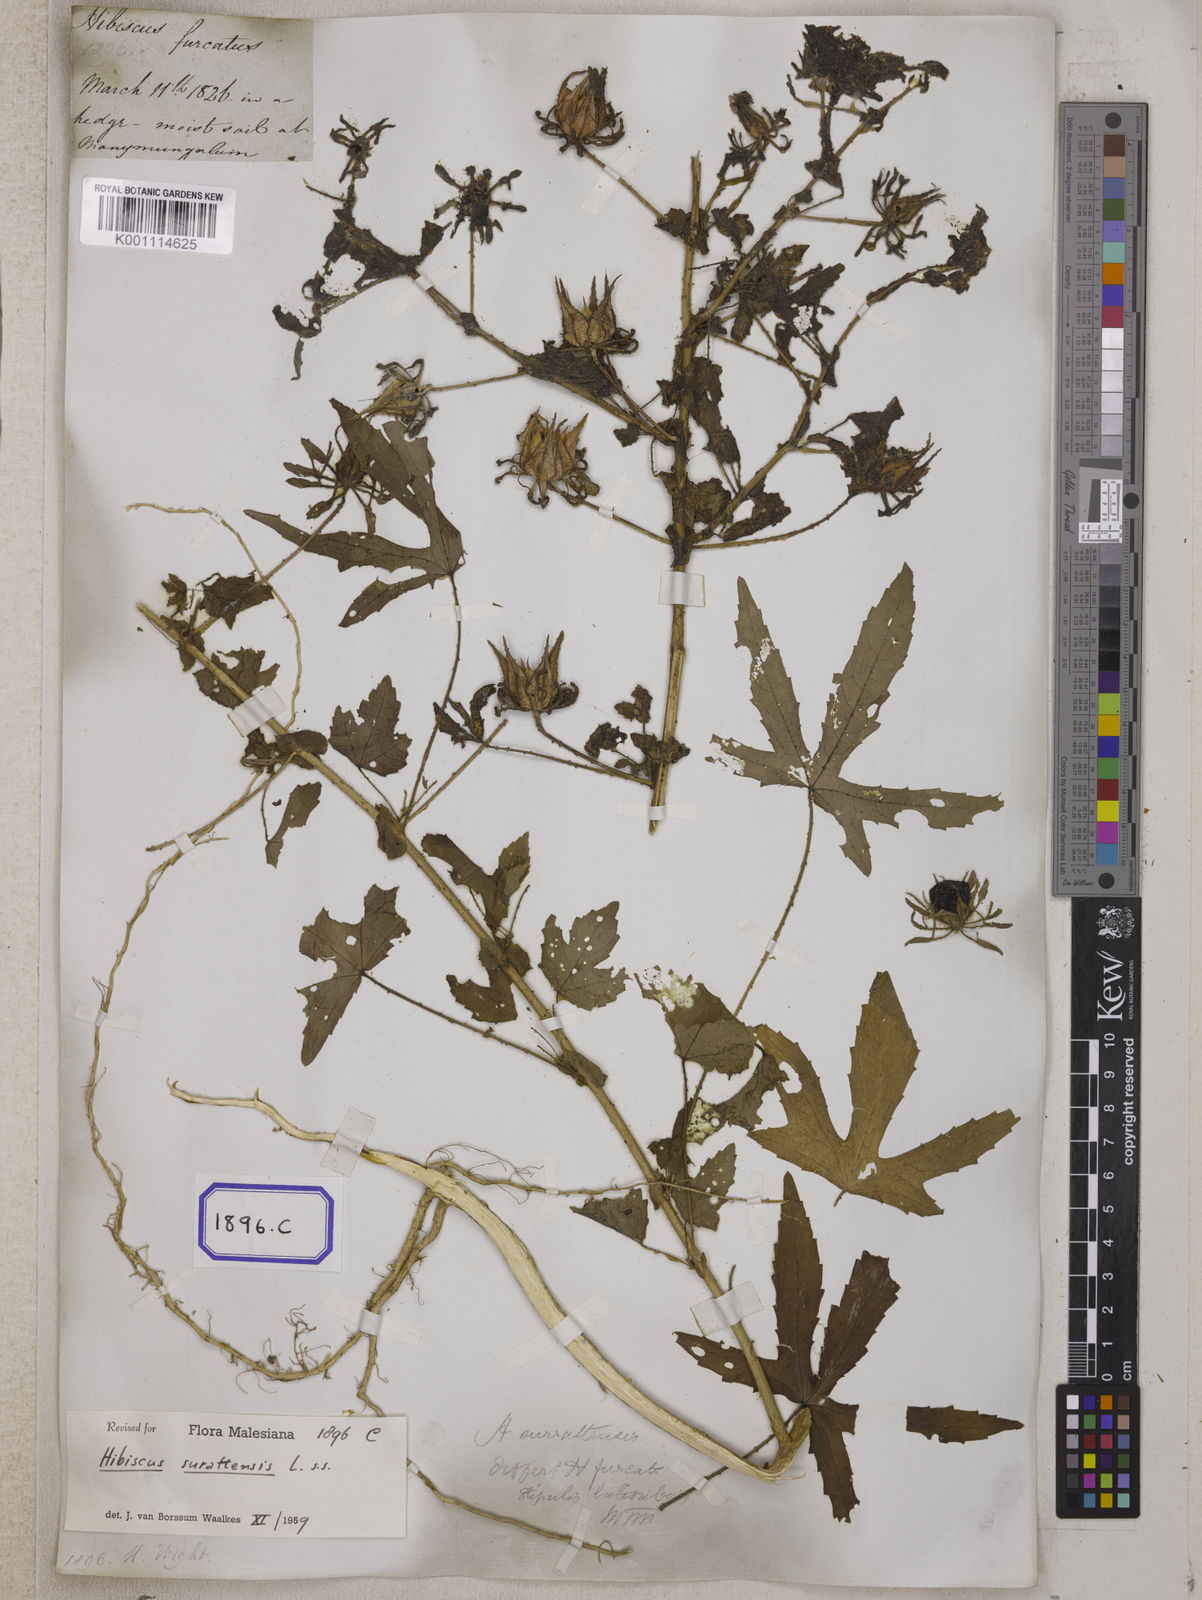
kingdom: Plantae
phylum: Tracheophyta
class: Magnoliopsida
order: Malvales
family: Malvaceae
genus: Hibiscus
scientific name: Hibiscus
